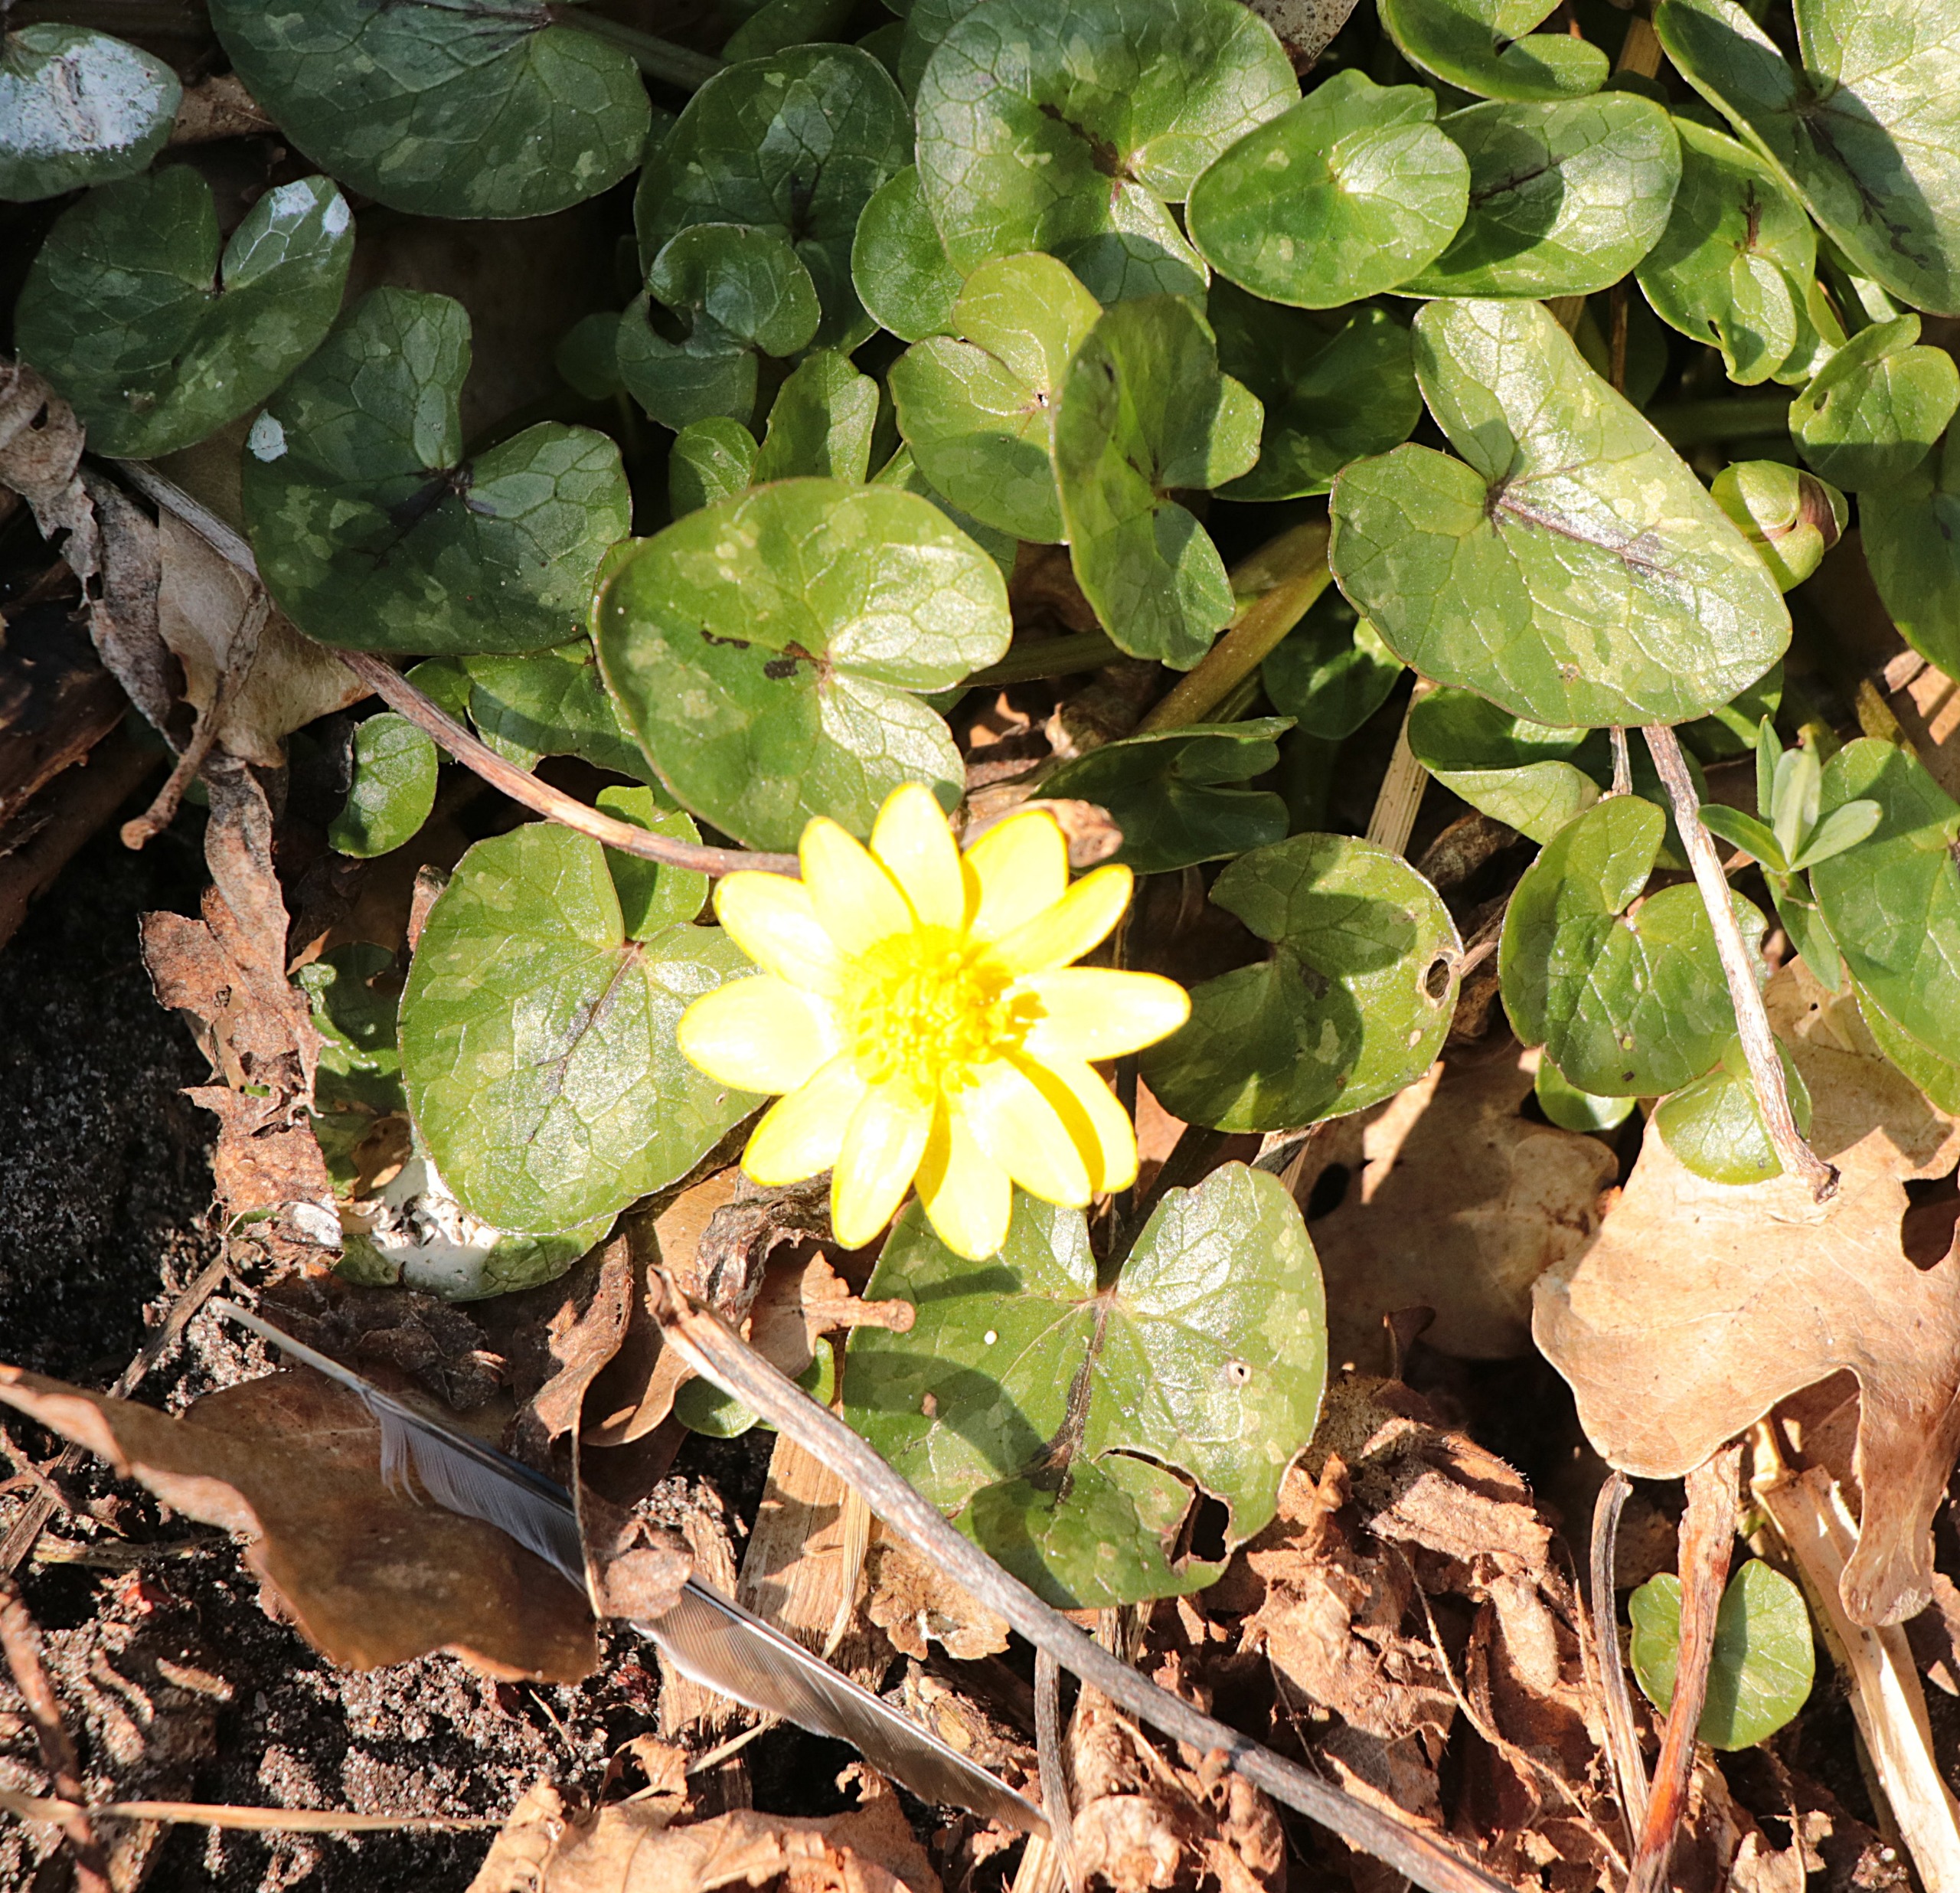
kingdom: Plantae
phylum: Tracheophyta
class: Magnoliopsida
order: Ranunculales
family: Ranunculaceae
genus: Ficaria
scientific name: Ficaria verna
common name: Vorterod
